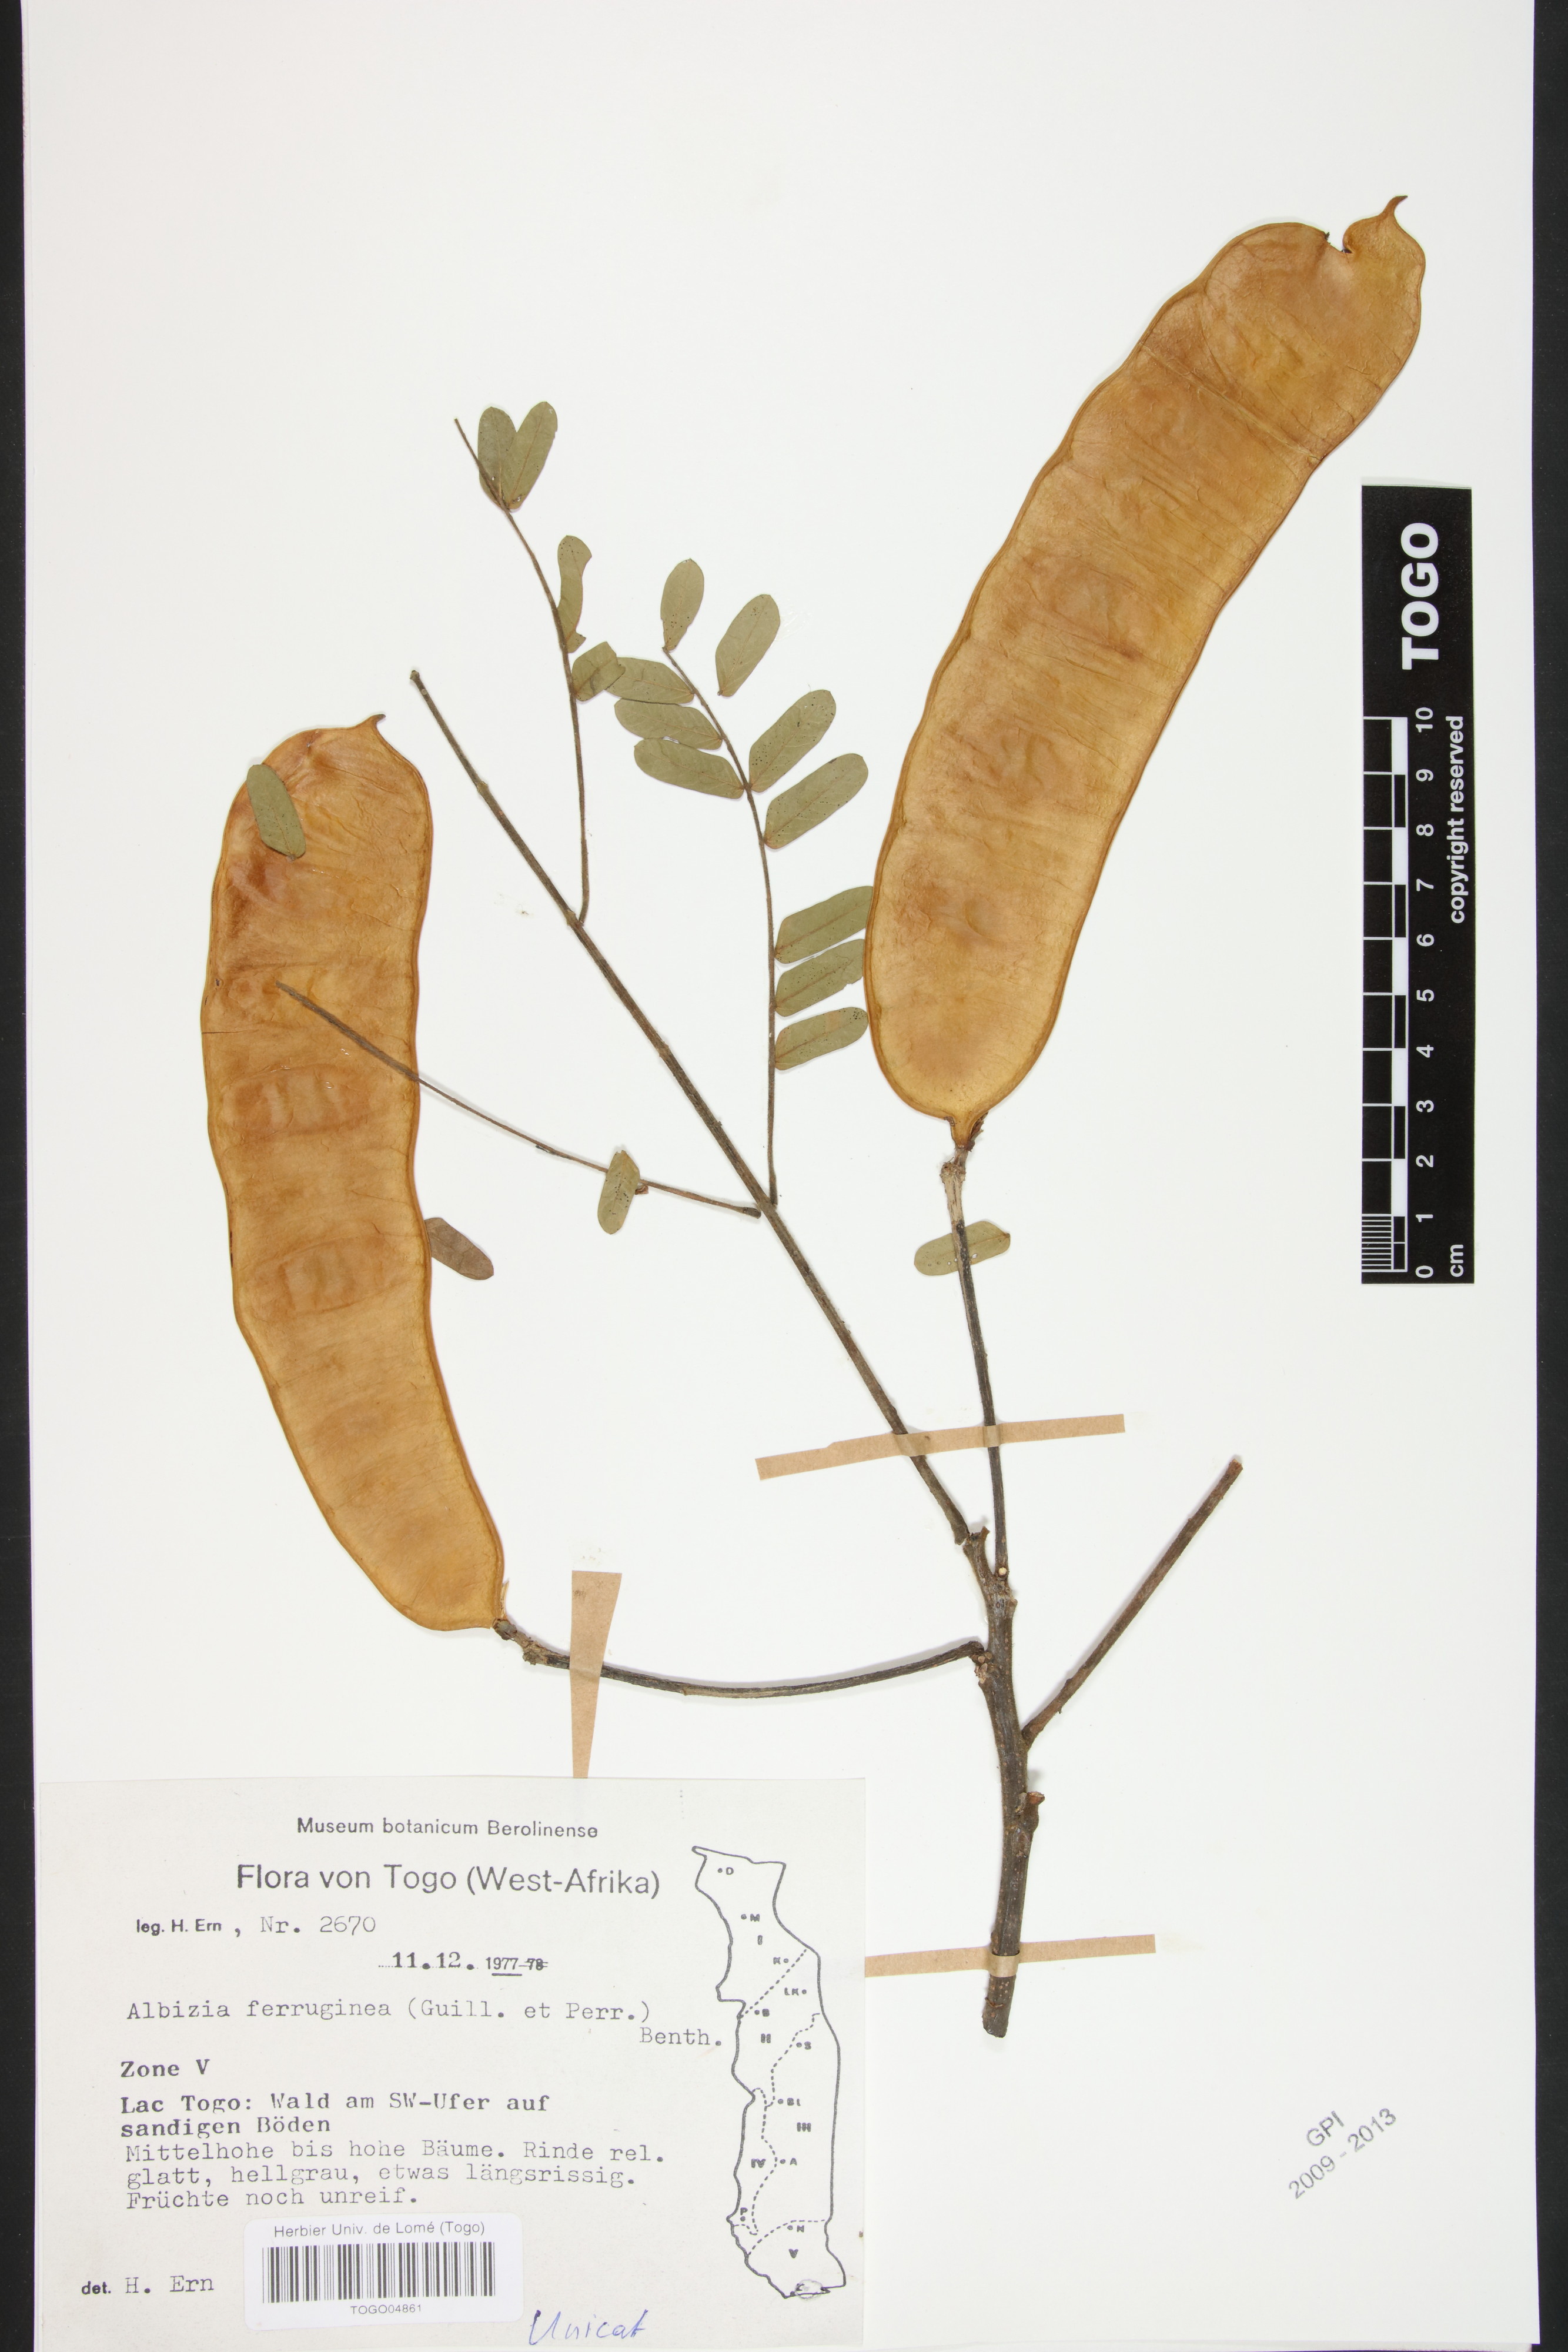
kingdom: Plantae
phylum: Tracheophyta
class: Magnoliopsida
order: Fabales
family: Fabaceae
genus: Albizia
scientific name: Albizia ferruginea
